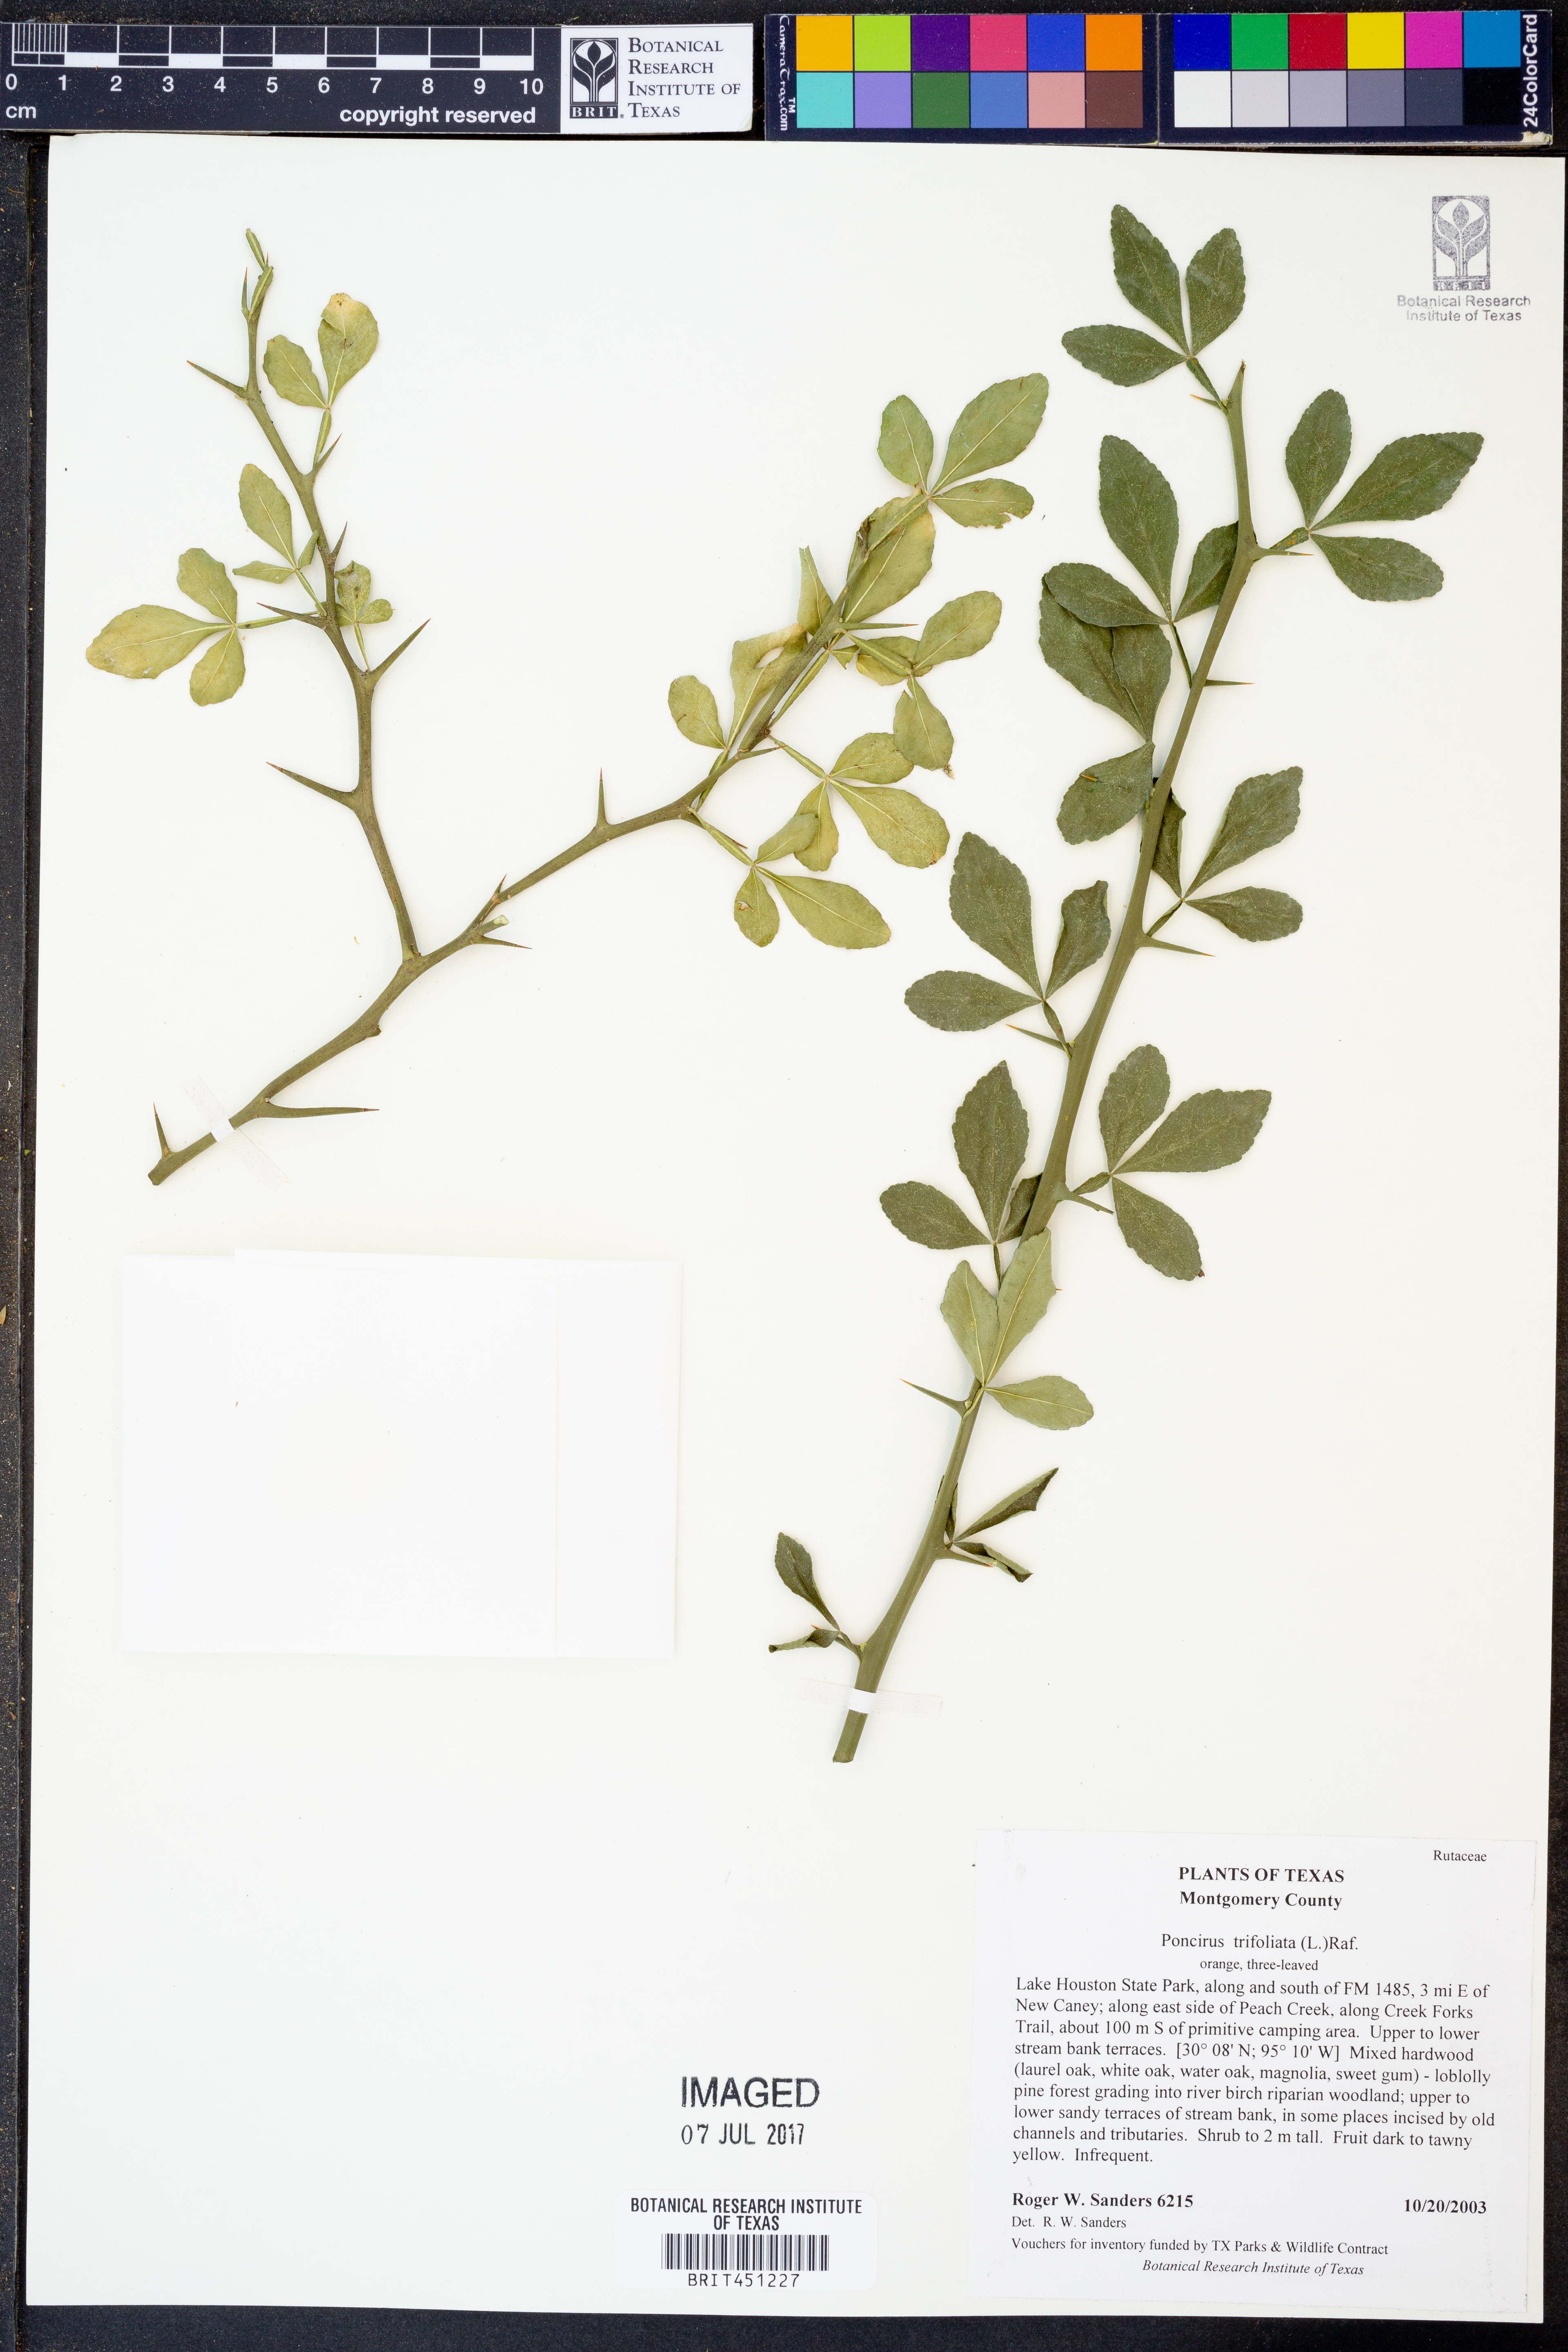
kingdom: Plantae
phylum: Tracheophyta
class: Magnoliopsida
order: Sapindales
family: Rutaceae
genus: Citrus
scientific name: Citrus trifoliata
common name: Japanese bitter-orange
